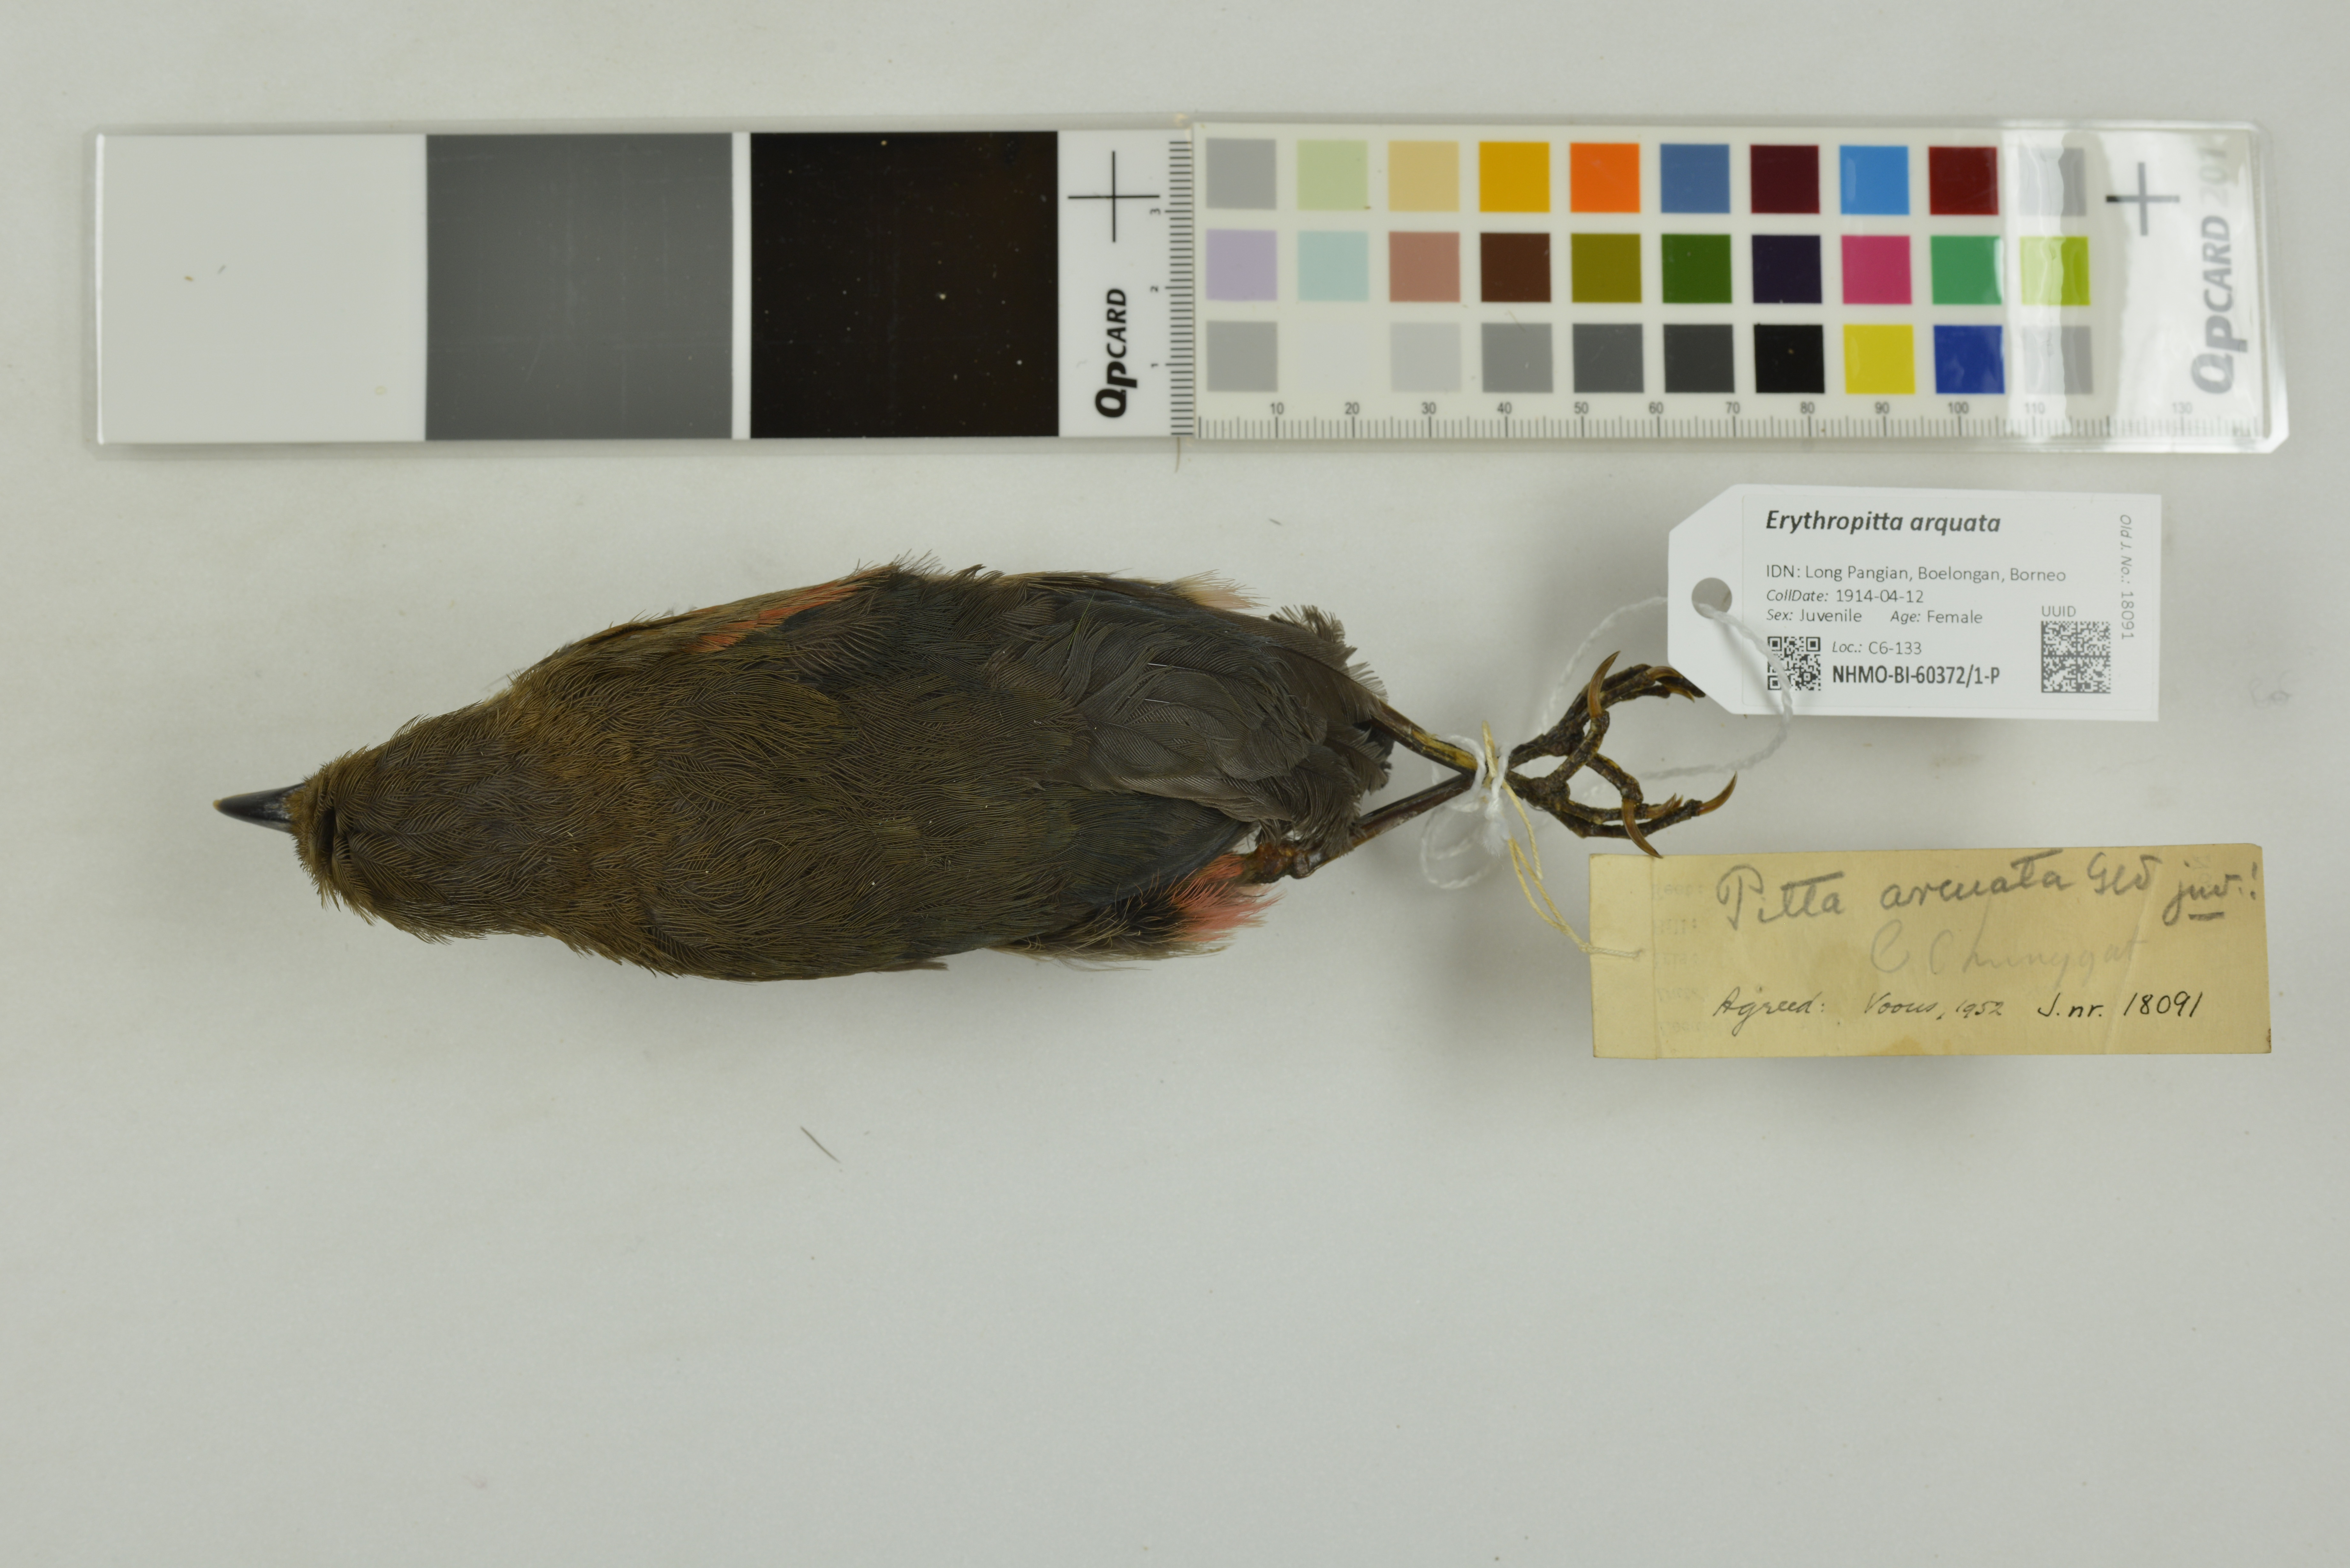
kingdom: Animalia
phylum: Chordata
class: Aves
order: Passeriformes
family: Pittidae
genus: Pitta
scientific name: Pitta arquata
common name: Blue-banded pitta
